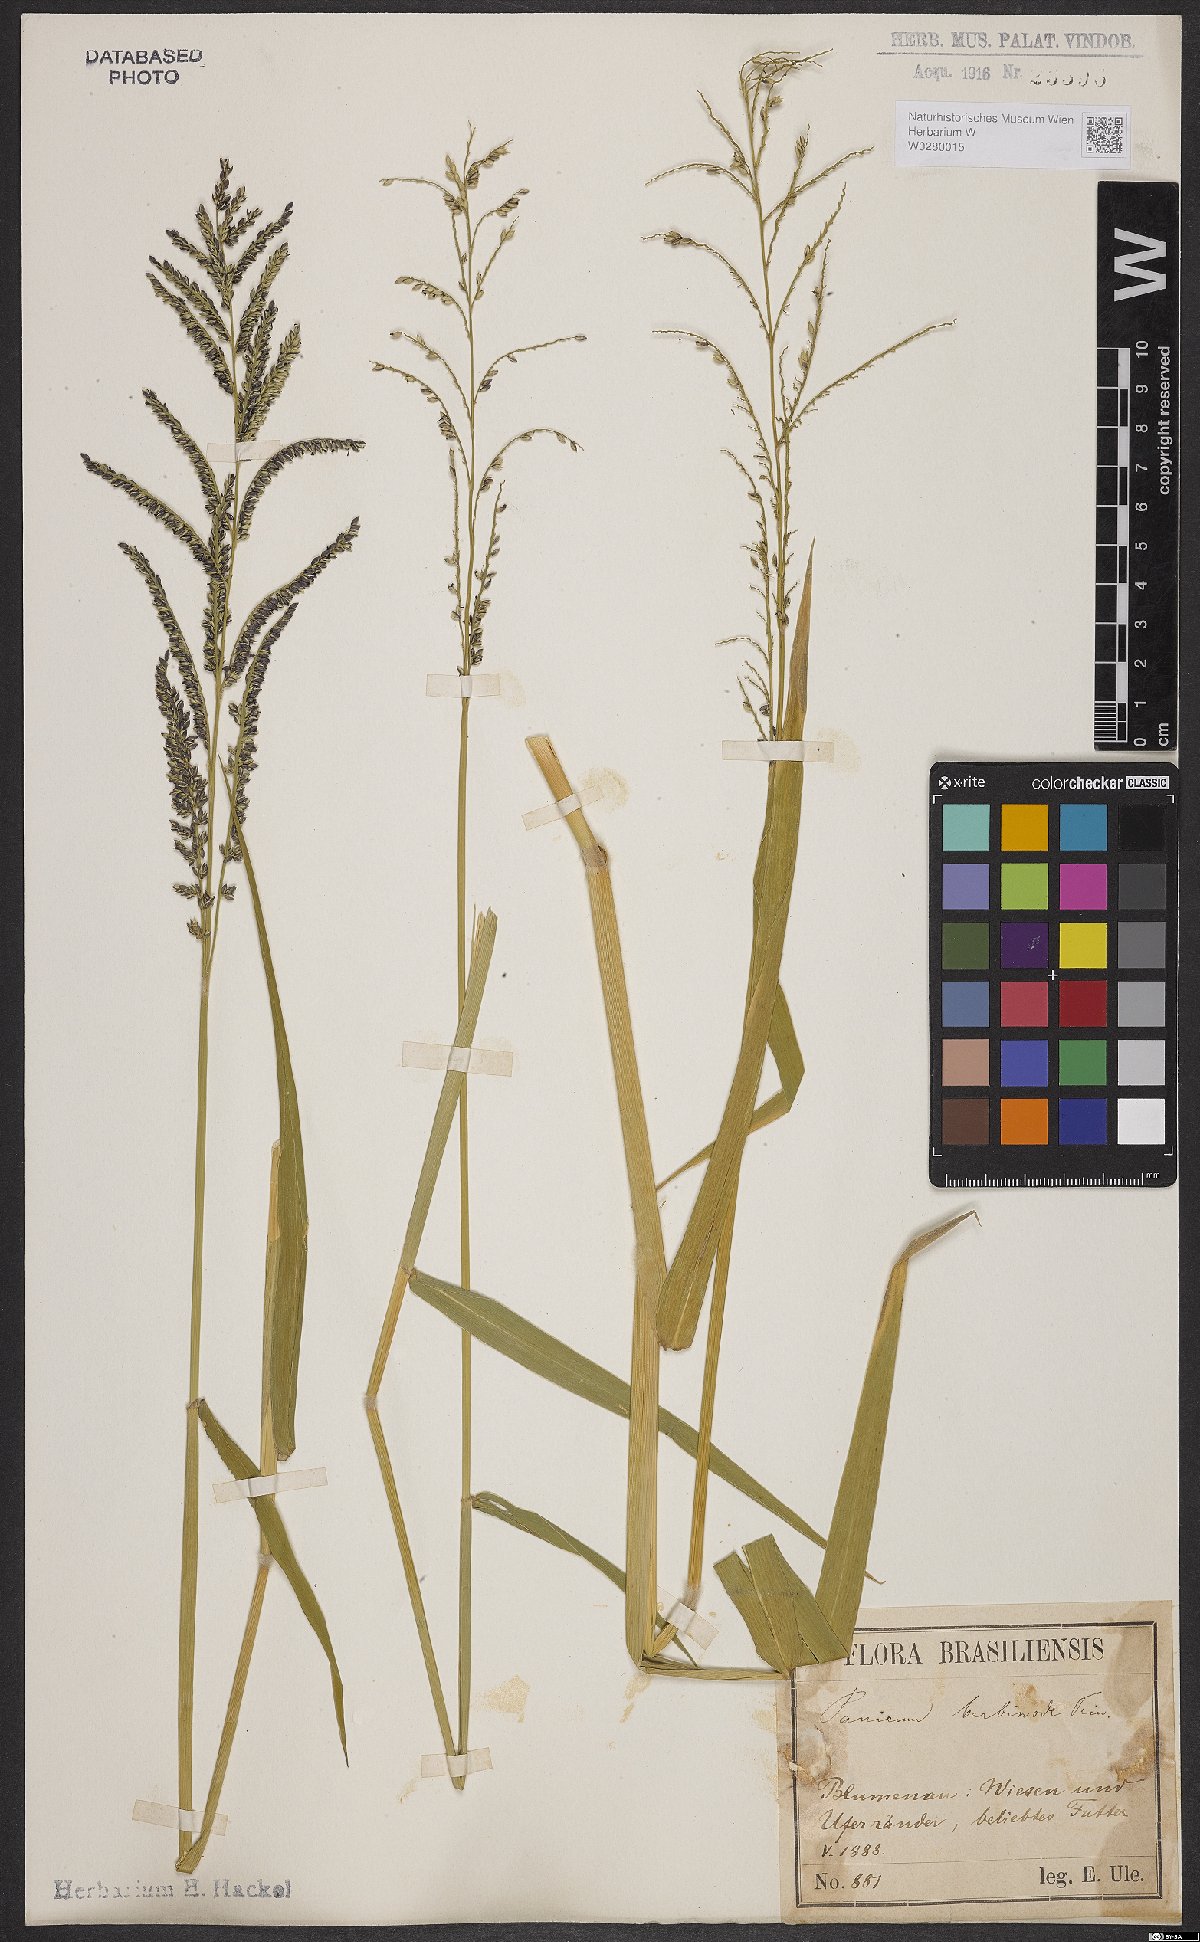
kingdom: Plantae
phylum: Tracheophyta
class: Liliopsida
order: Poales
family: Poaceae
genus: Urochloa
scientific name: Urochloa mutica
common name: Para grass
